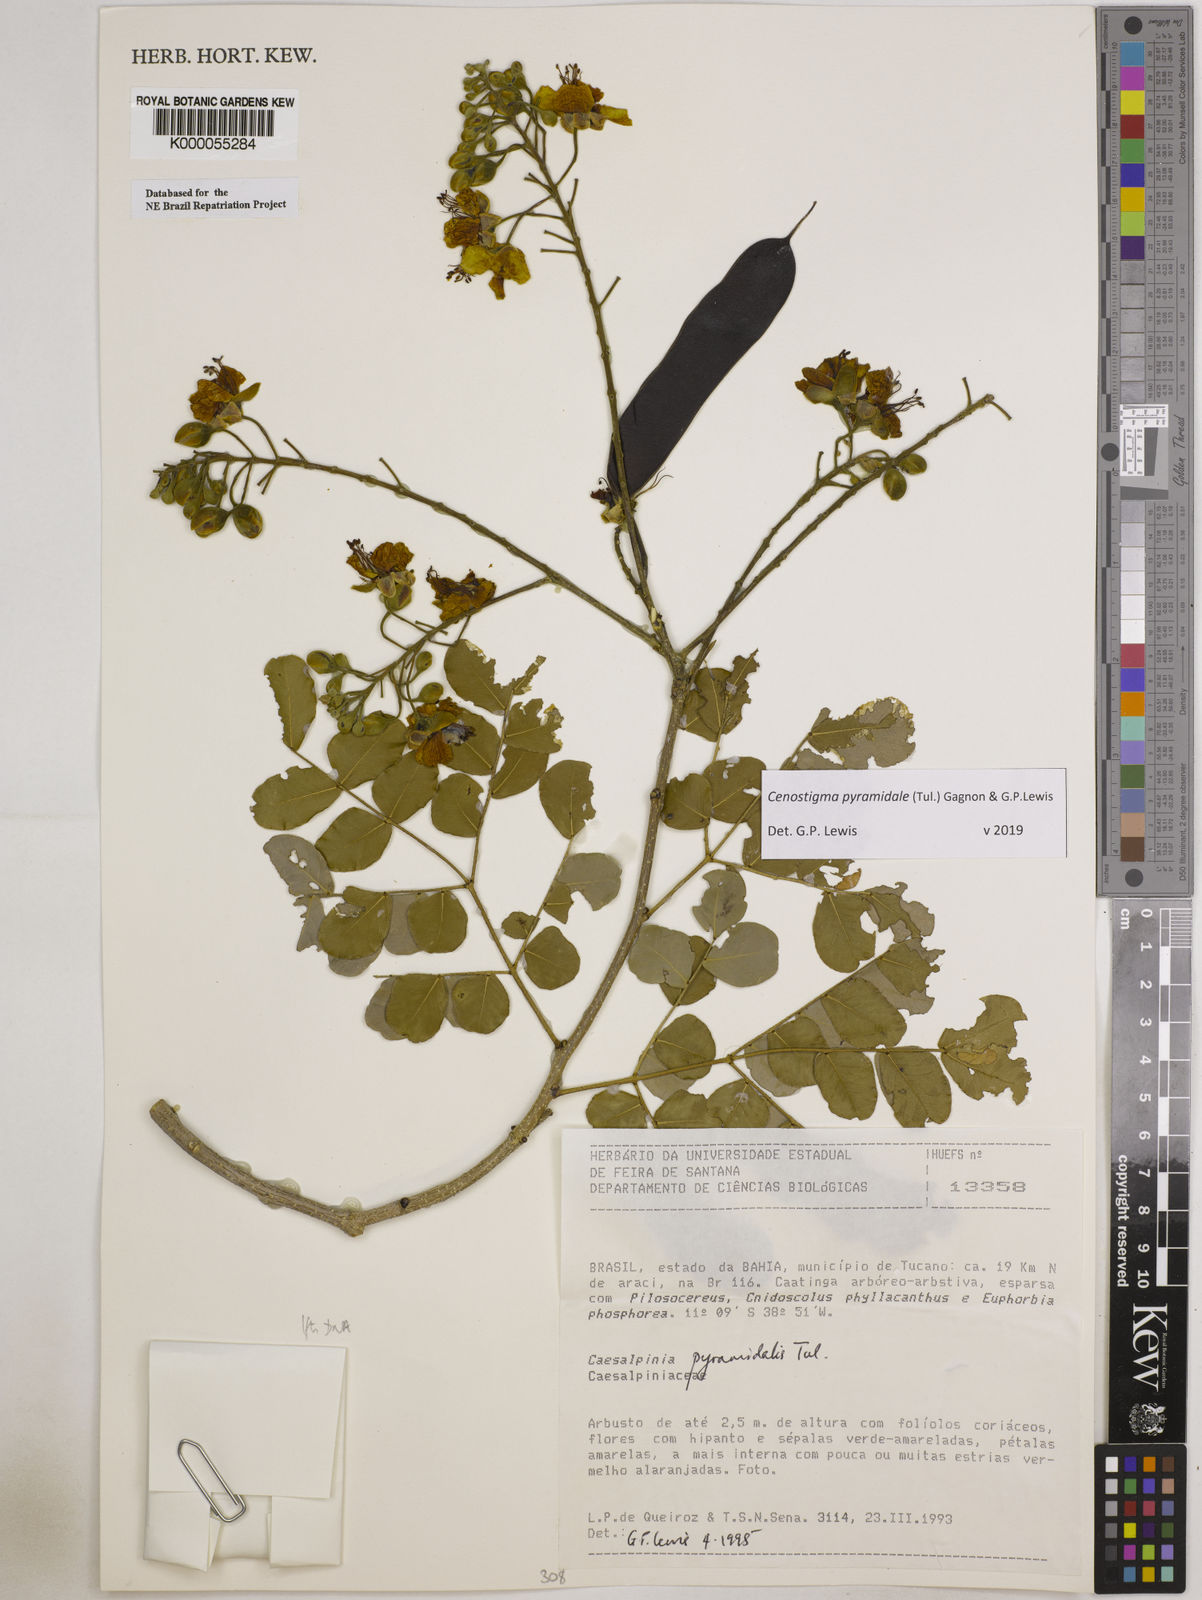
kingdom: Plantae
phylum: Tracheophyta
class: Magnoliopsida
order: Fabales
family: Fabaceae
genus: Cenostigma
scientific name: Cenostigma pyramidale
